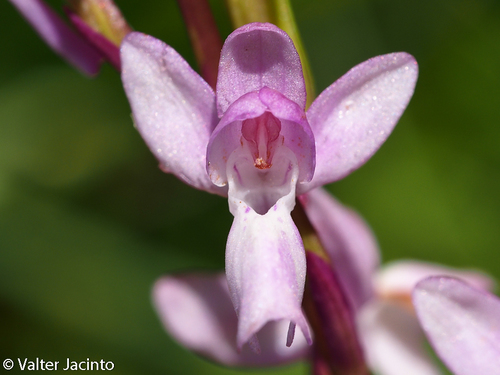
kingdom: Plantae
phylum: Tracheophyta
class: Liliopsida
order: Asparagales
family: Orchidaceae
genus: Orchis
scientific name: Orchis mascula
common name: Early-purple orchid
